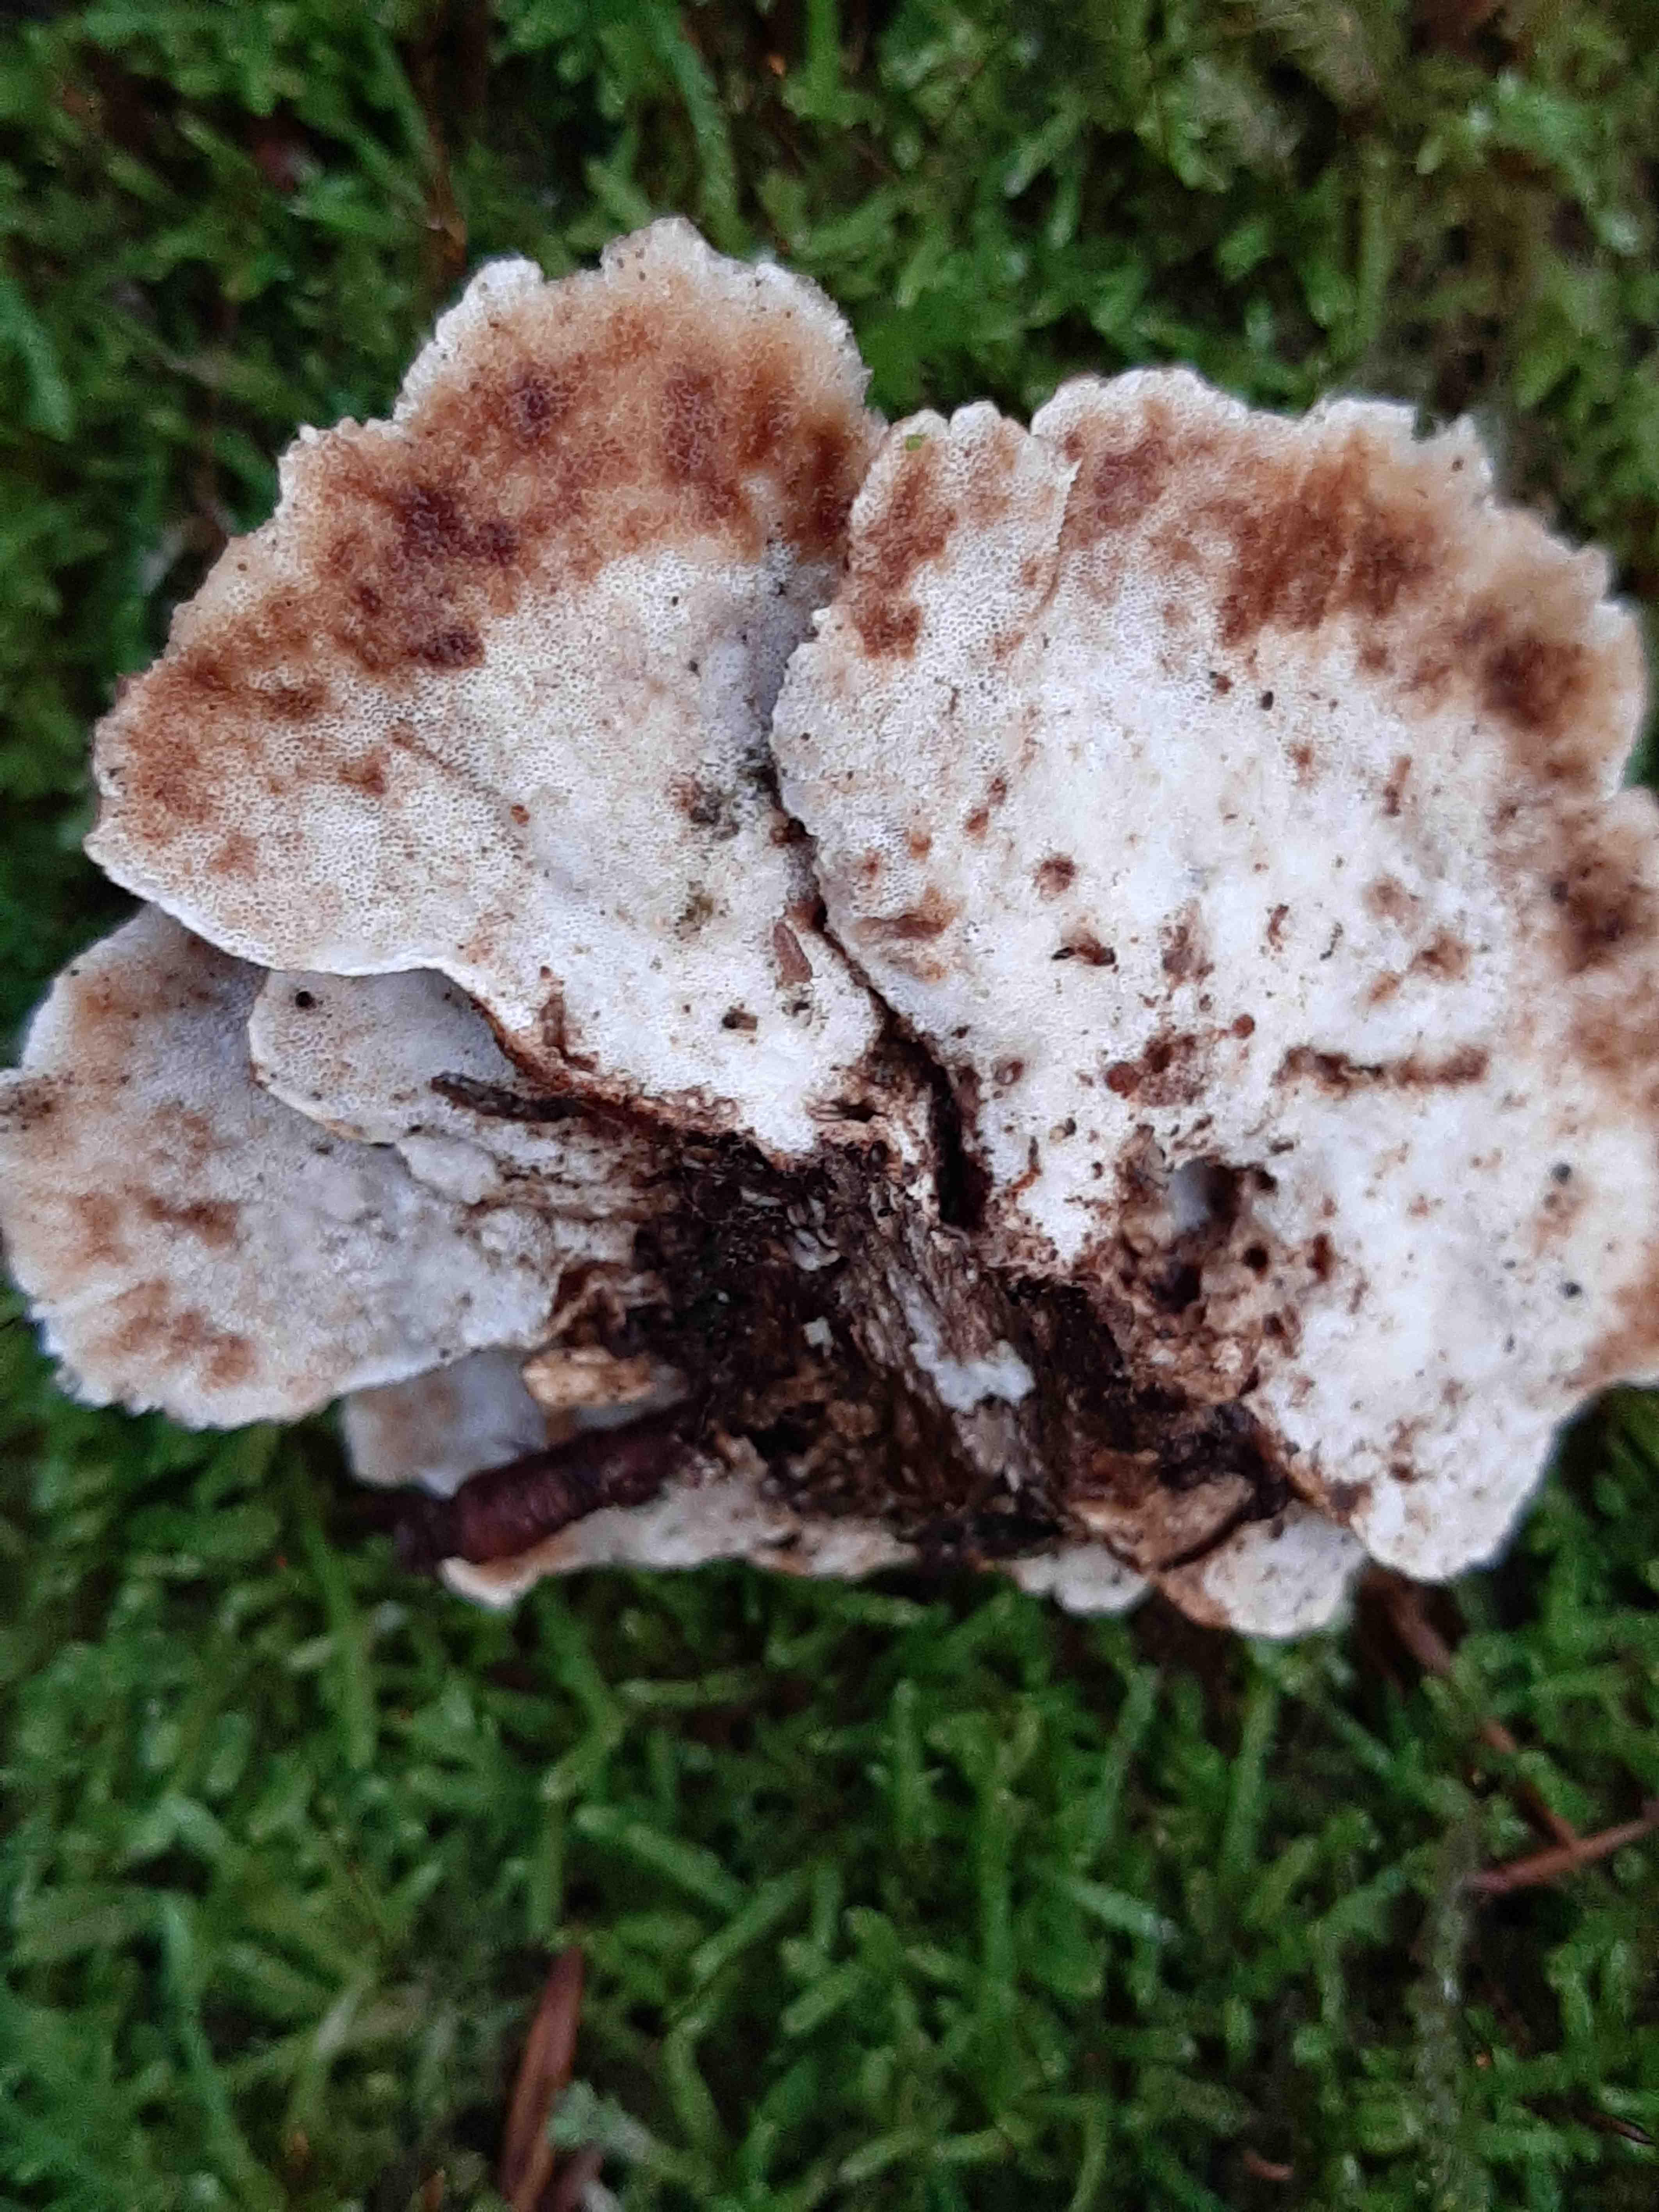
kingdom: Fungi
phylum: Basidiomycota
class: Agaricomycetes
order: Polyporales
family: Polyporaceae
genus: Trametes
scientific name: Trametes versicolor
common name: broget læderporesvamp
